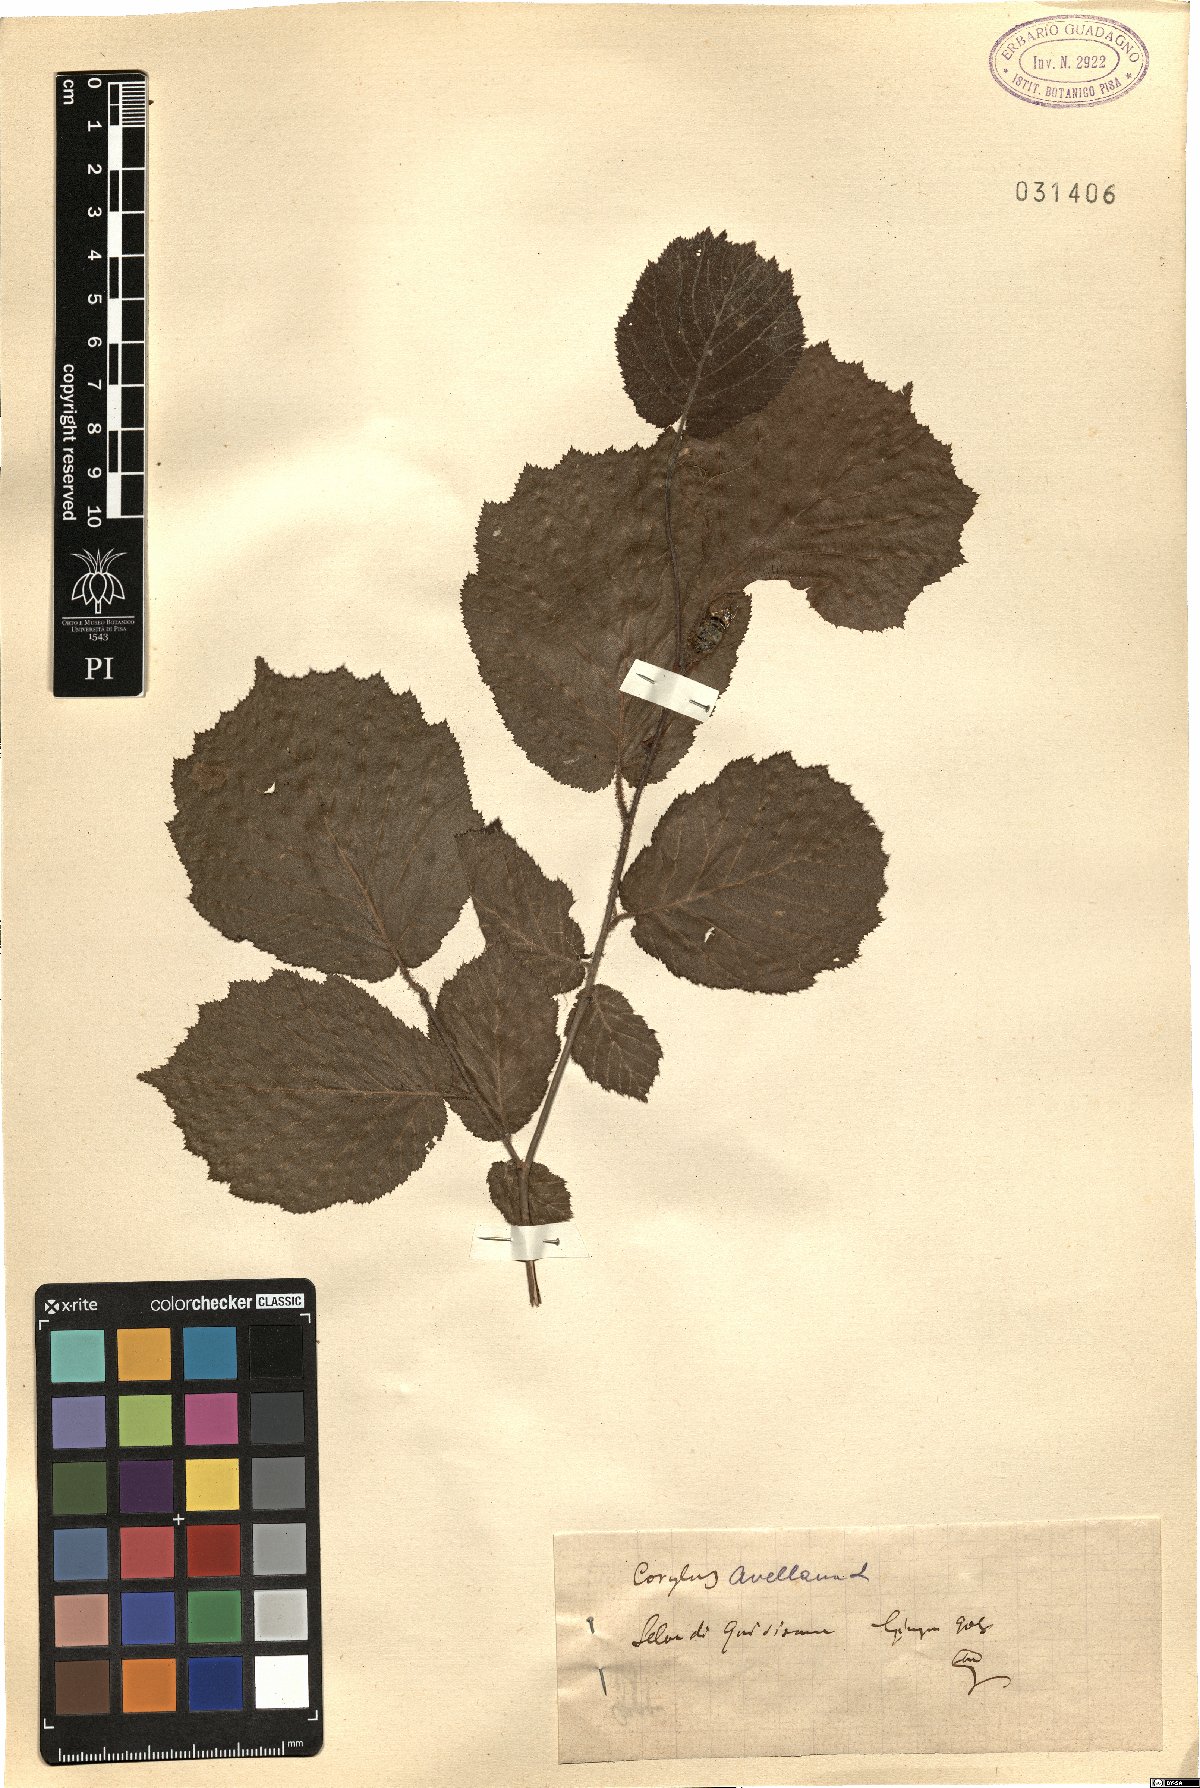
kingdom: Plantae
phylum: Tracheophyta
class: Magnoliopsida
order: Fagales
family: Betulaceae
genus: Corylus
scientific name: Corylus avellana
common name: European hazel
